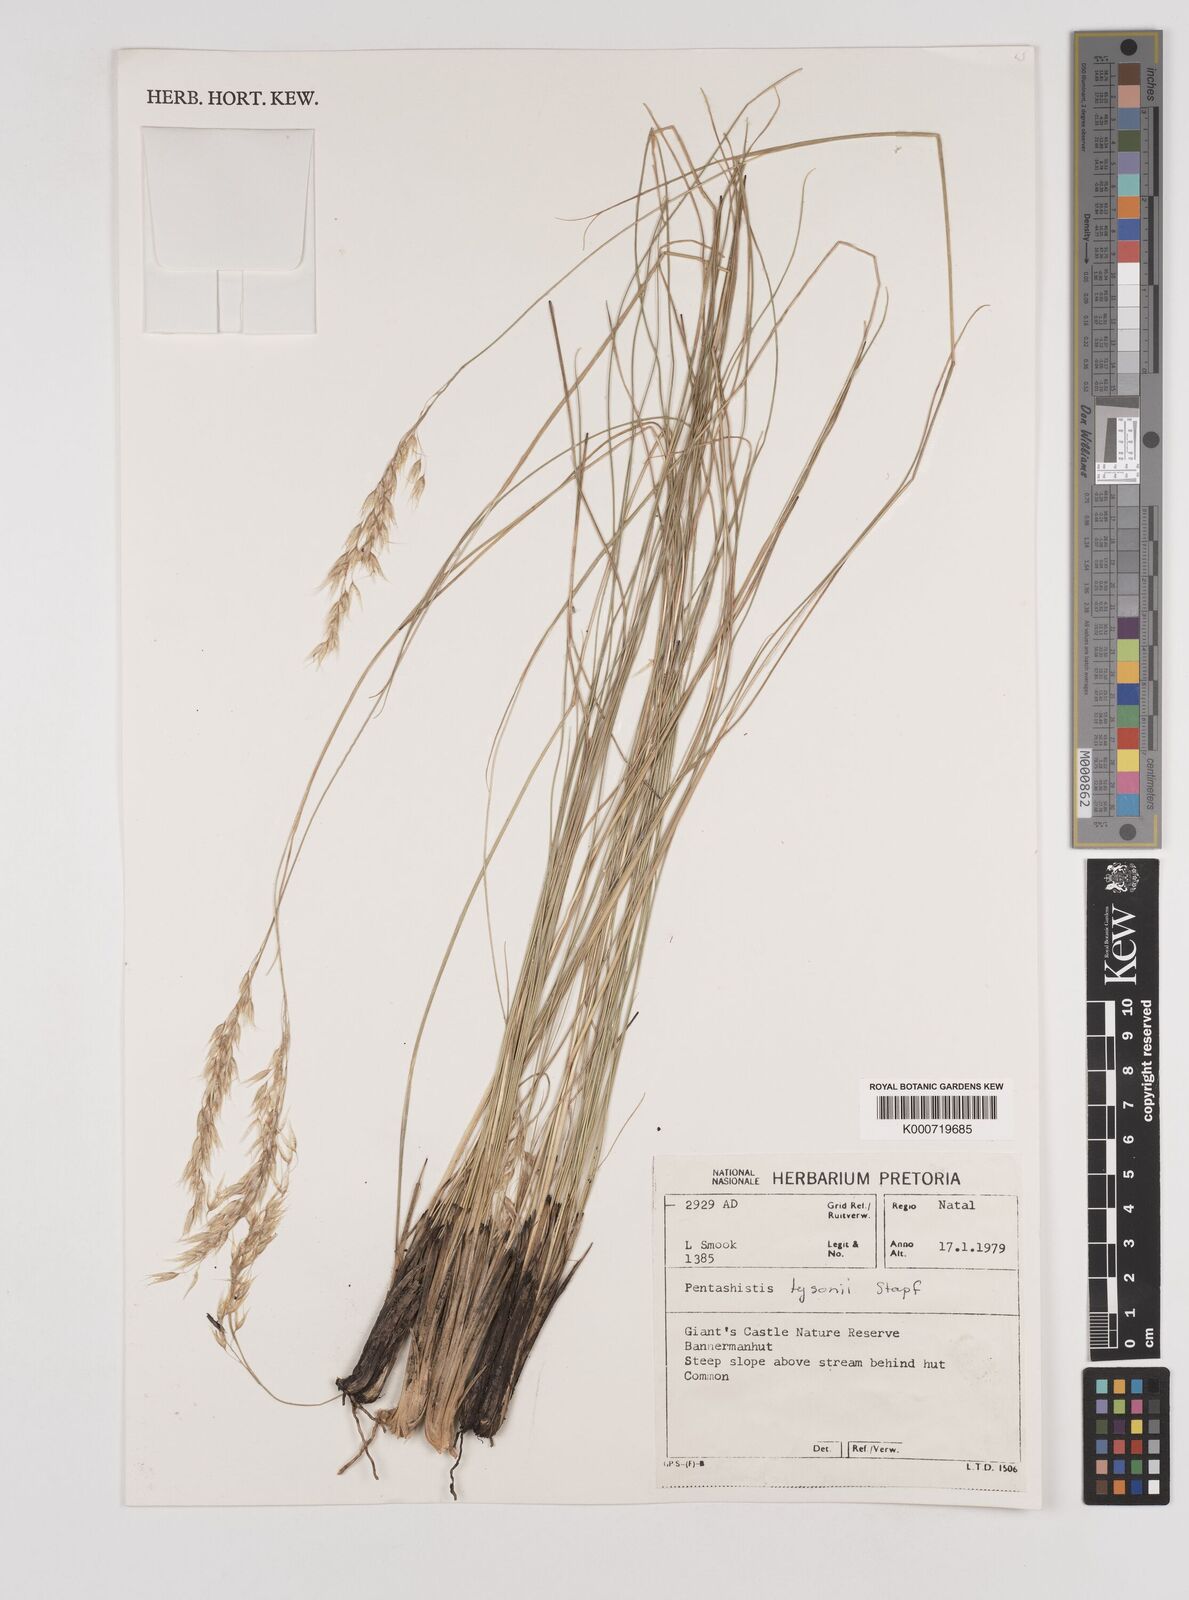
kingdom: Plantae
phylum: Tracheophyta
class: Liliopsida
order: Poales
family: Poaceae
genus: Pentameris
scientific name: Pentameris tysonii
